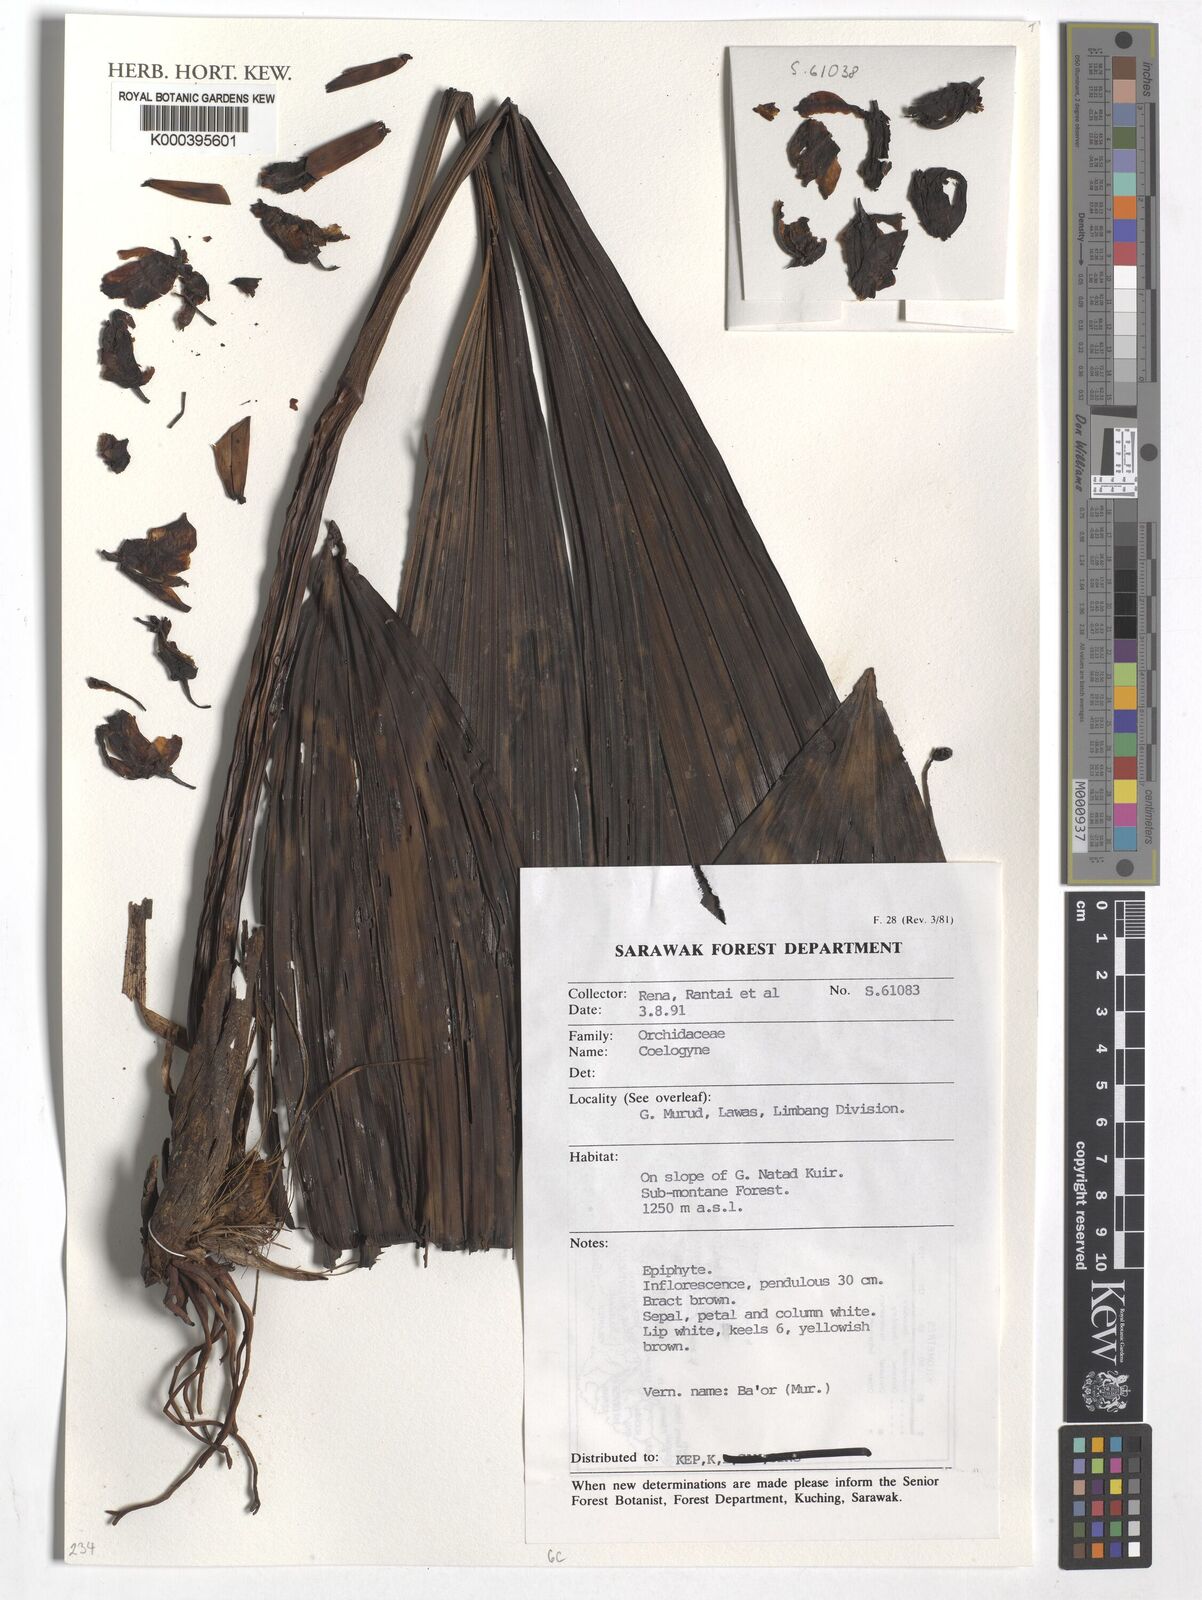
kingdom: Plantae
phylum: Tracheophyta
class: Liliopsida
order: Asparagales
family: Orchidaceae
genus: Coelogyne
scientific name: Coelogyne
